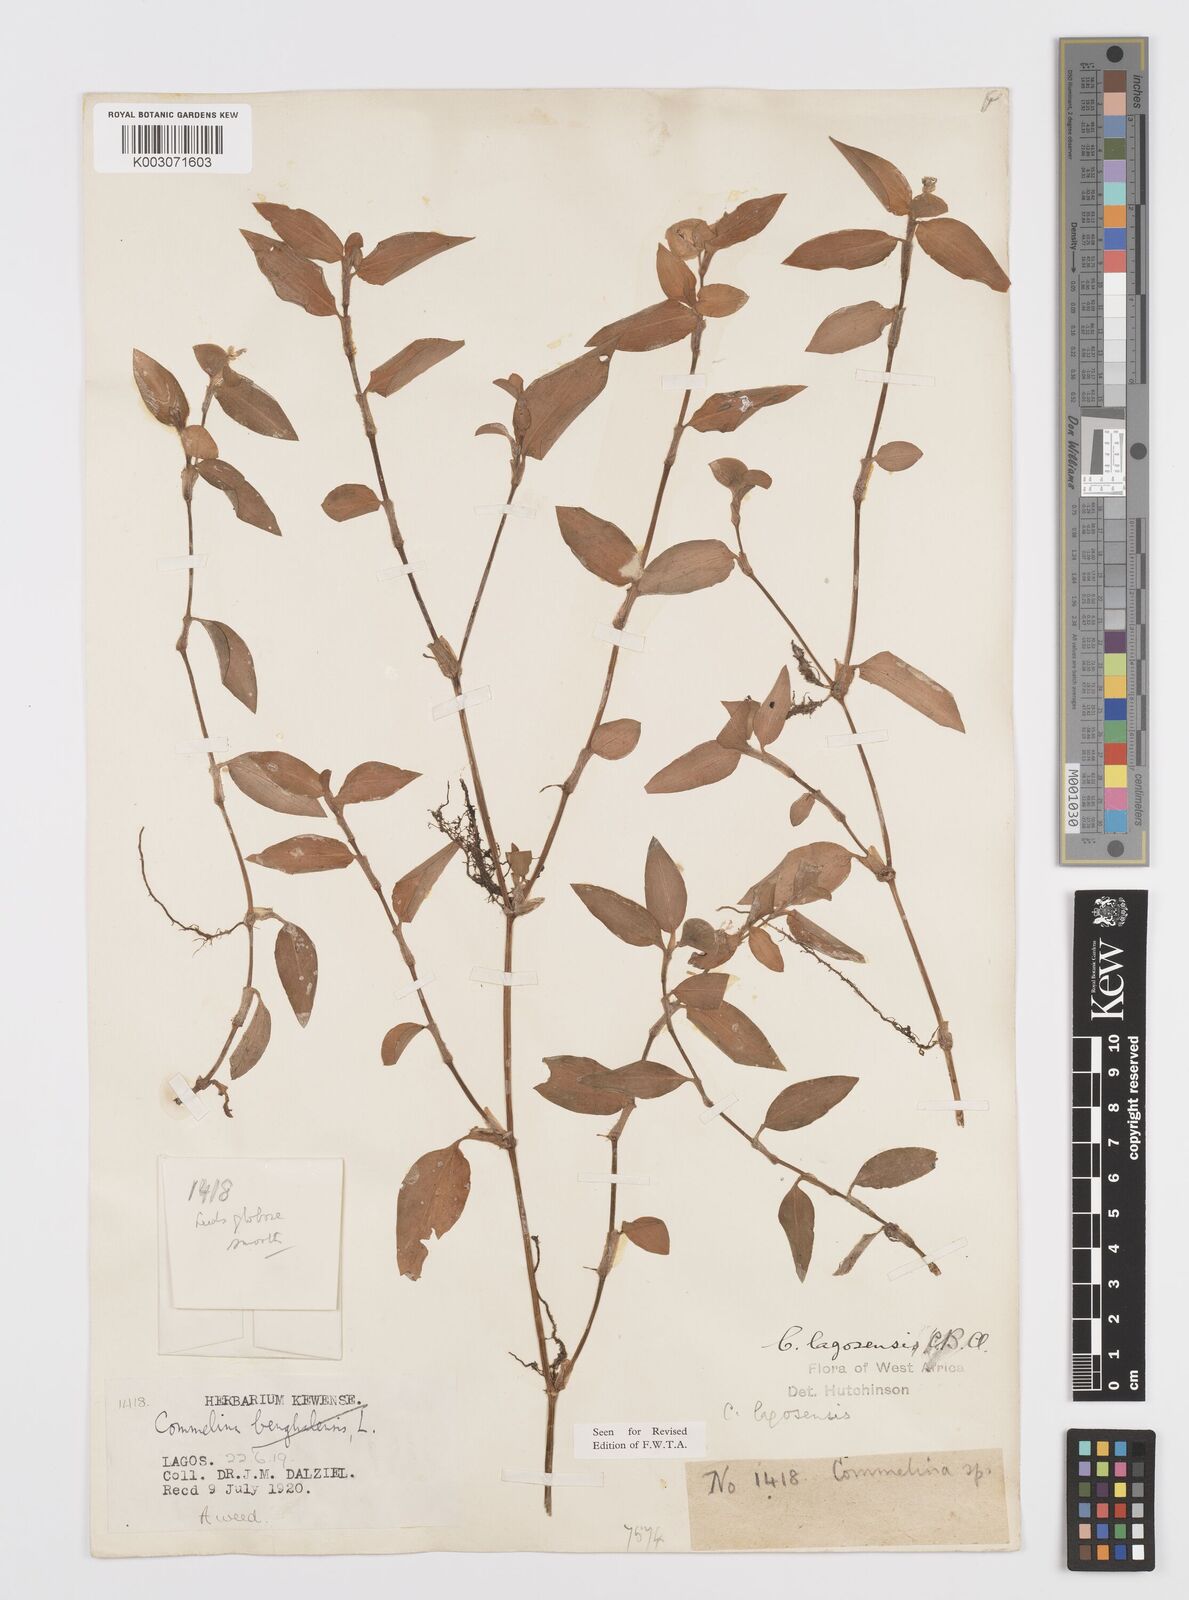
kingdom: Plantae
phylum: Tracheophyta
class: Liliopsida
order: Commelinales
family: Commelinaceae
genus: Commelina
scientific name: Commelina bracteosa
